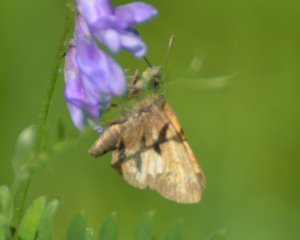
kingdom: Animalia
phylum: Arthropoda
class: Insecta
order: Lepidoptera
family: Hesperiidae
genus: Lon
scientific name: Lon hobomok
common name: Hobomok Skipper
